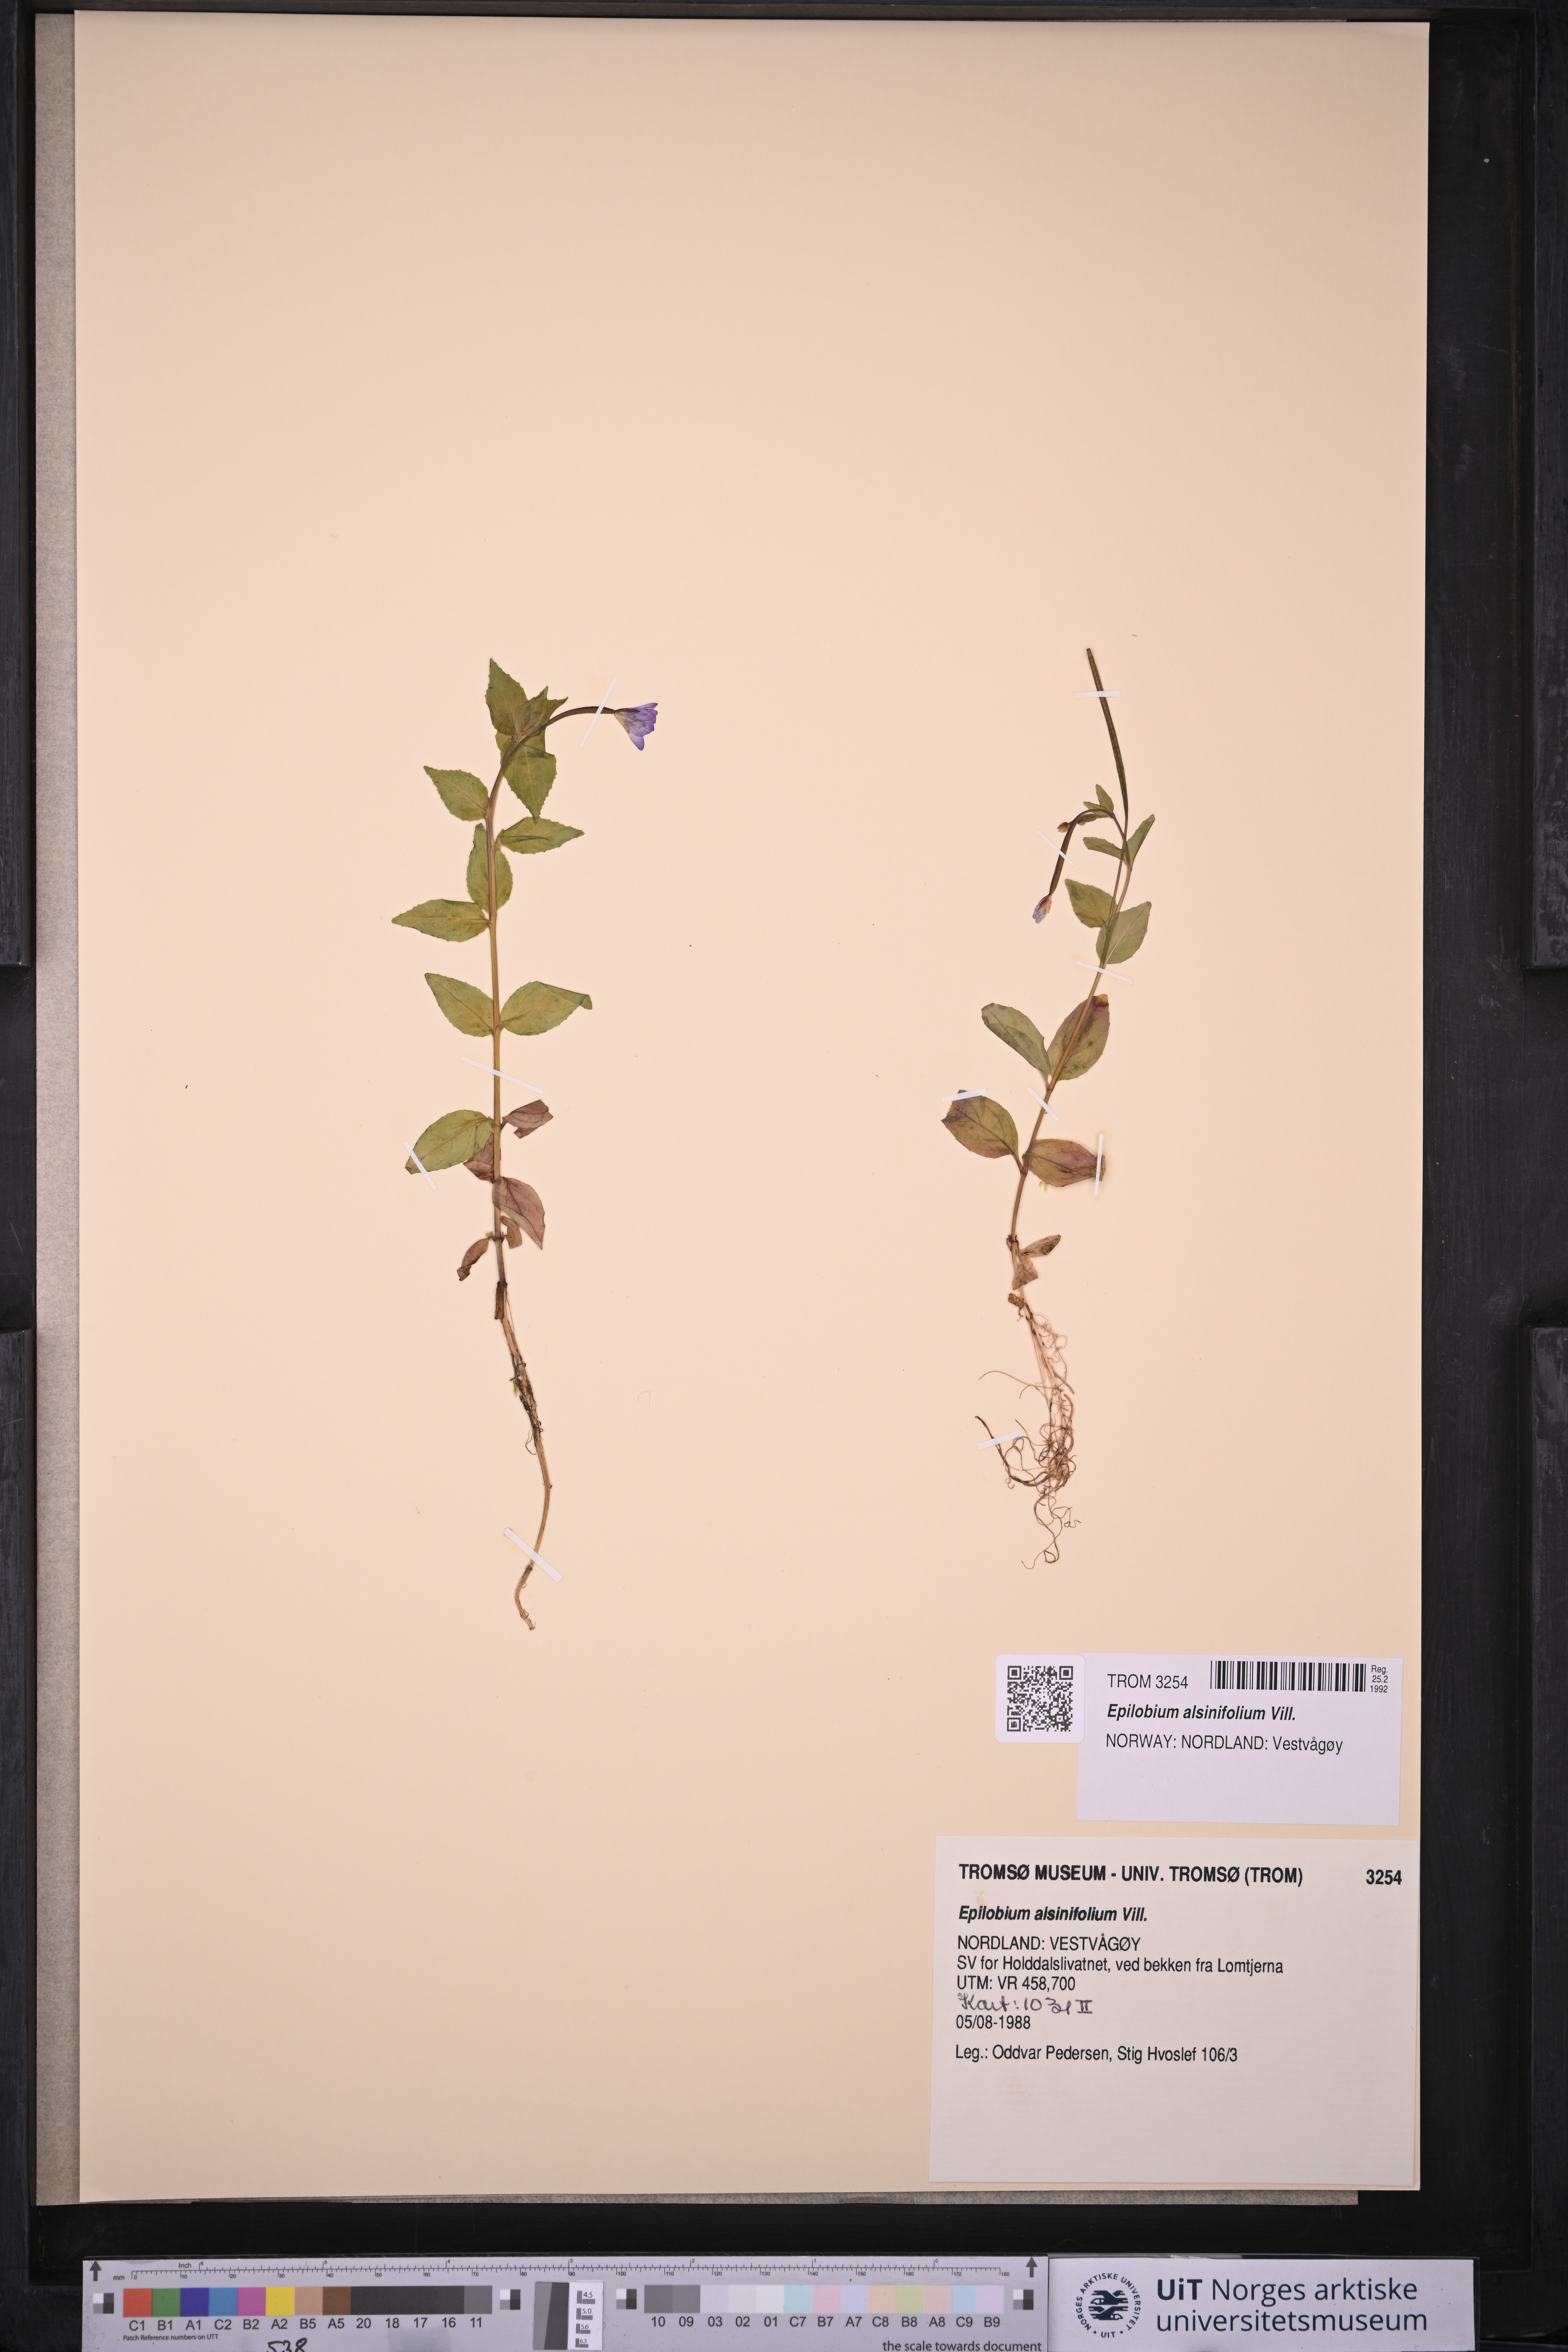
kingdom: Plantae
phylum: Tracheophyta
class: Magnoliopsida
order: Myrtales
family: Onagraceae
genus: Epilobium
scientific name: Epilobium alsinifolium
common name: Chickweed willowherb
